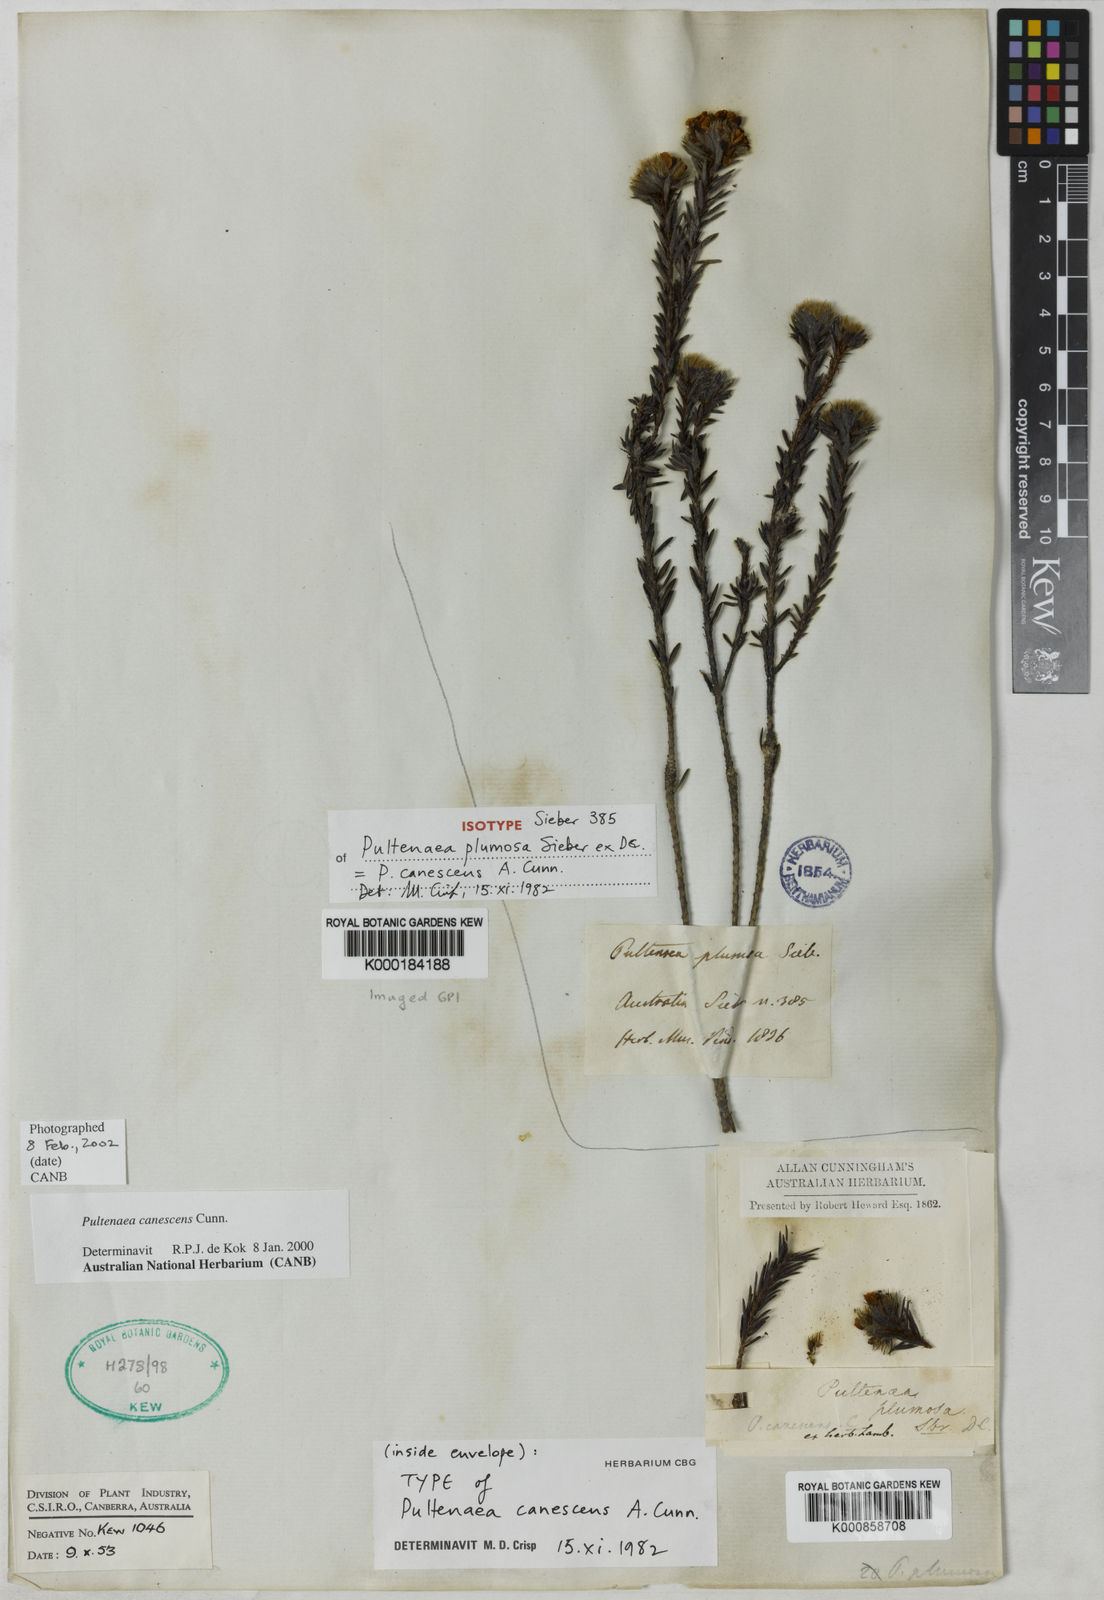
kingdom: Plantae
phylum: Tracheophyta
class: Magnoliopsida
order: Fabales
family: Fabaceae
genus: Pultenaea
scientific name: Pultenaea canescens
